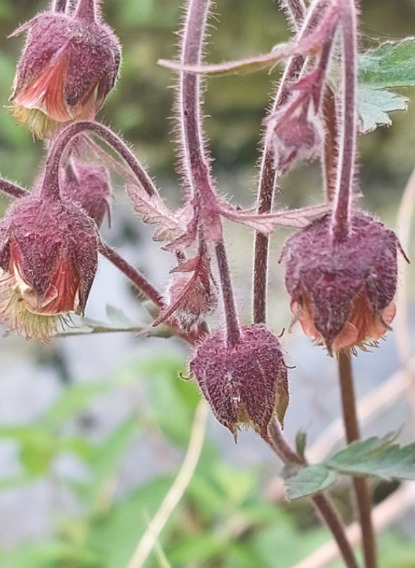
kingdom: Plantae
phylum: Tracheophyta
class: Magnoliopsida
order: Rosales
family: Rosaceae
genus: Geum
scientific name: Geum rivale
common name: Eng-nellikerod
